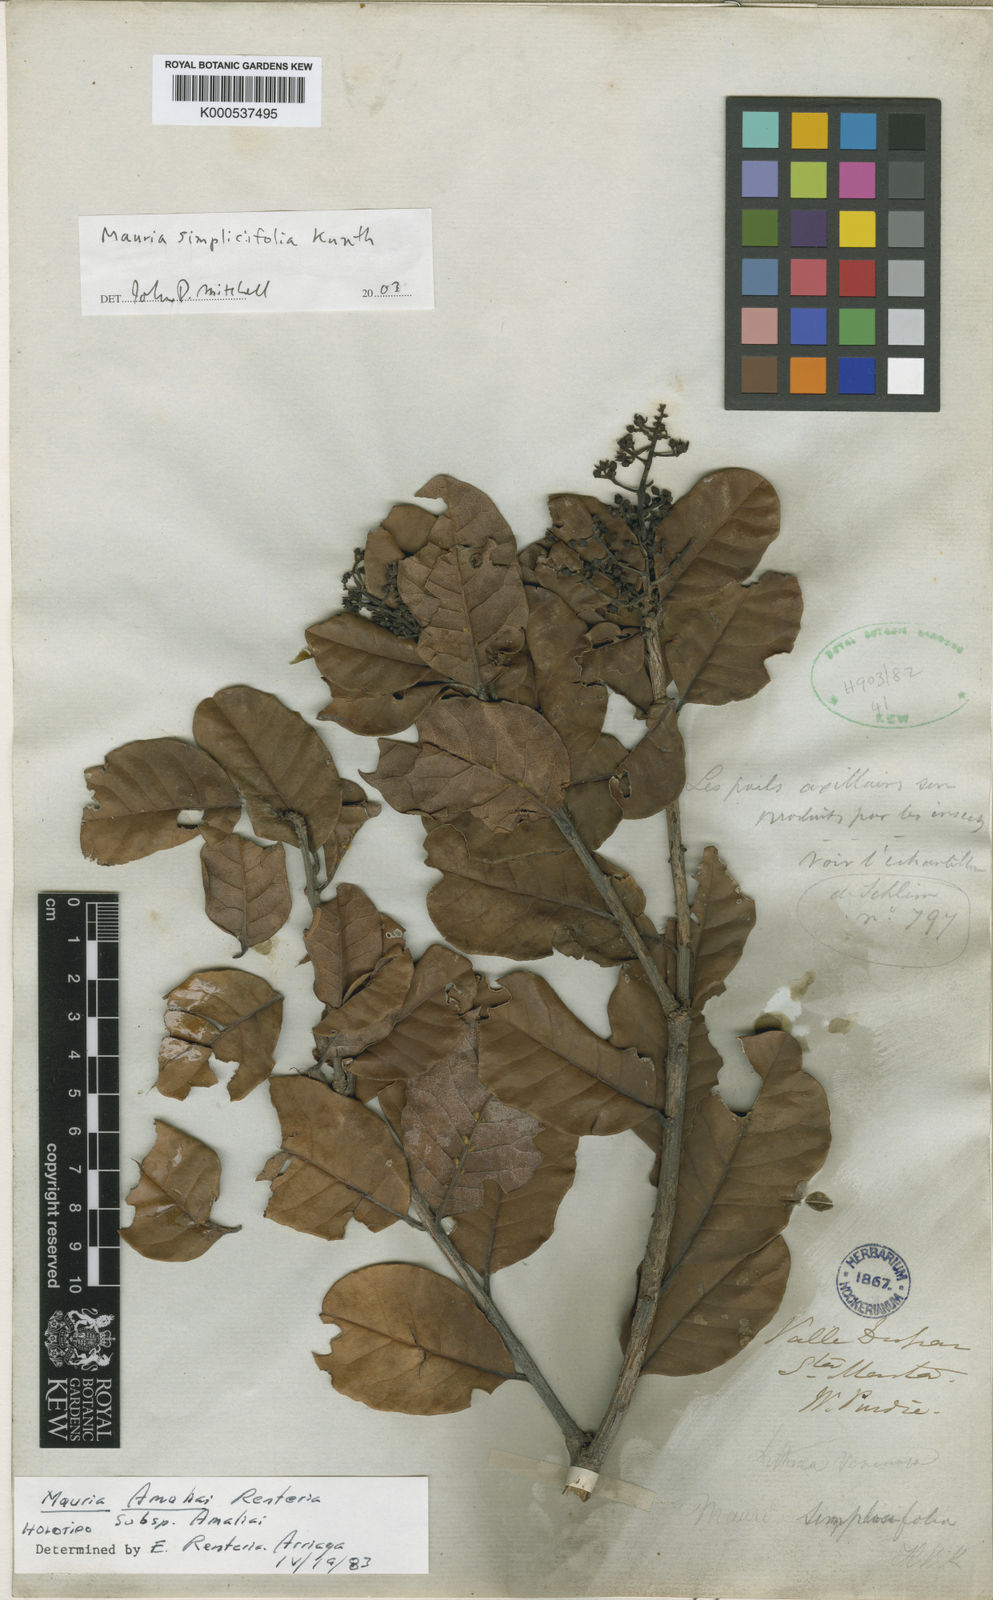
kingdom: Plantae
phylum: Tracheophyta
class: Magnoliopsida
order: Sapindales
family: Anacardiaceae
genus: Mauria
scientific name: Mauria
